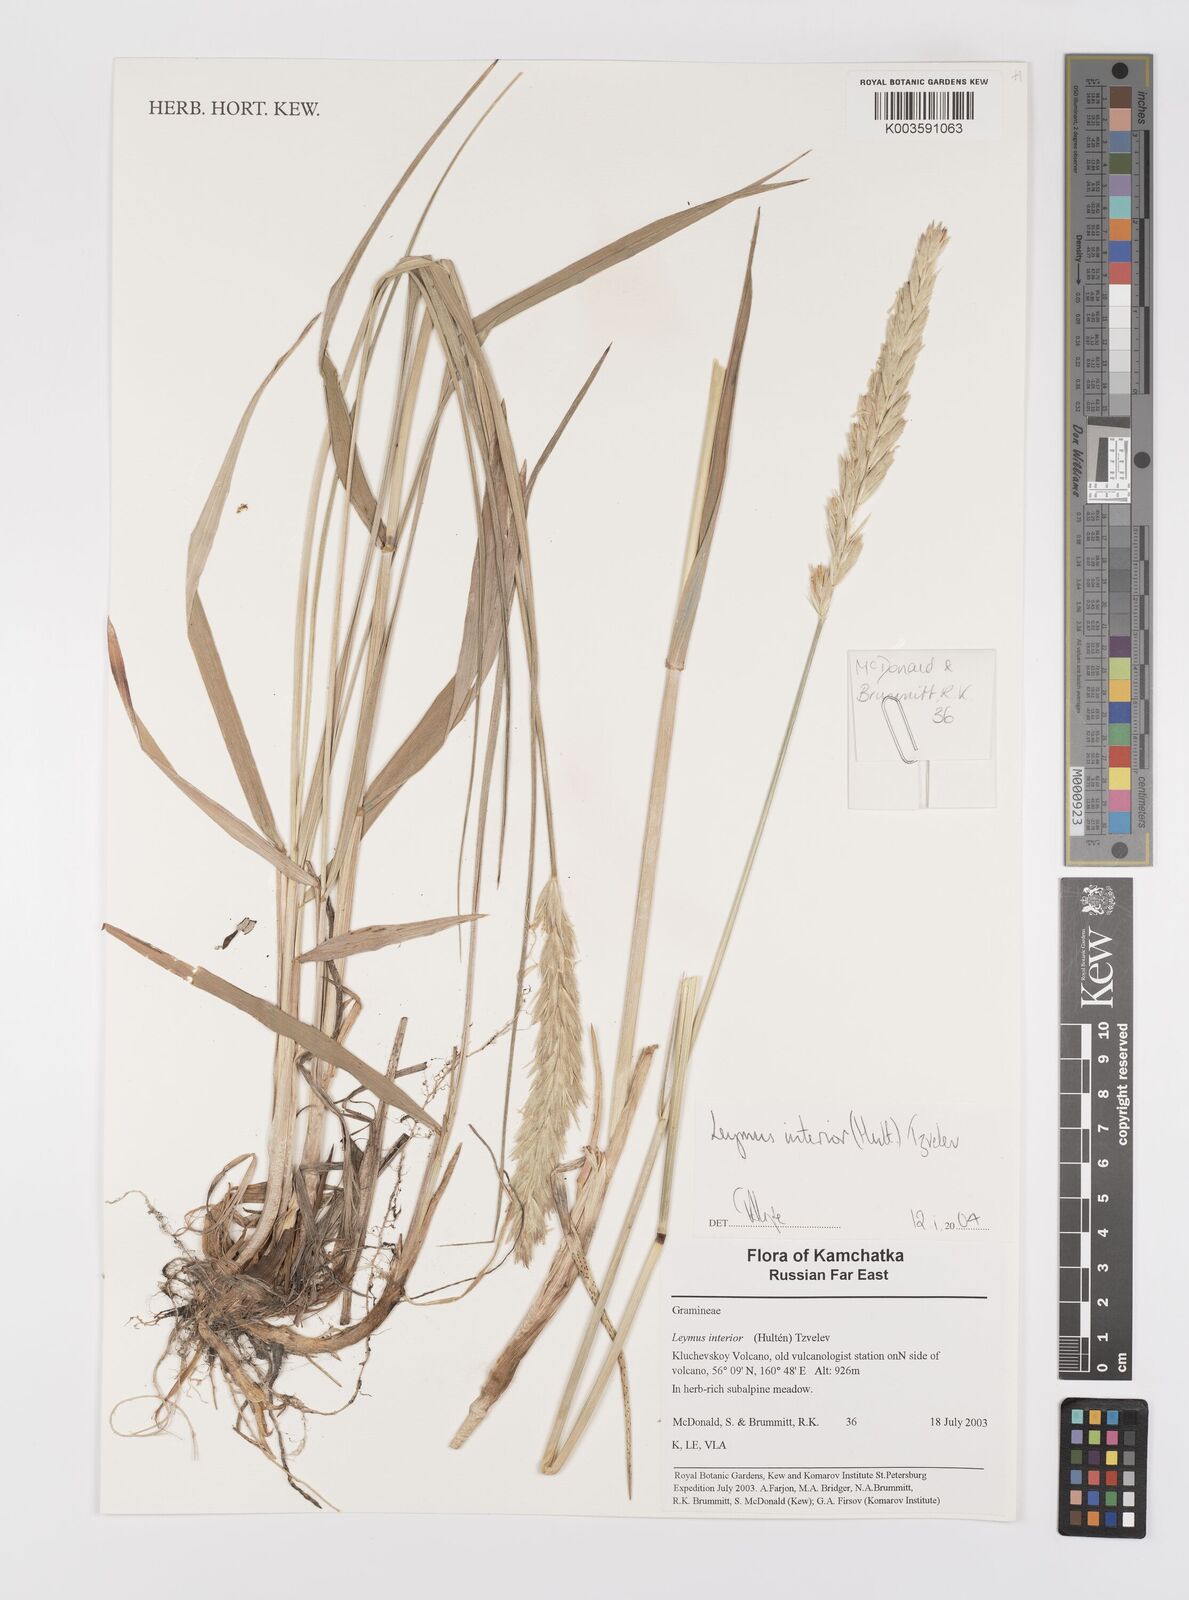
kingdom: Plantae
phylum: Tracheophyta
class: Liliopsida
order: Poales
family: Poaceae
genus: Leymus
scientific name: Leymus ajanensis
